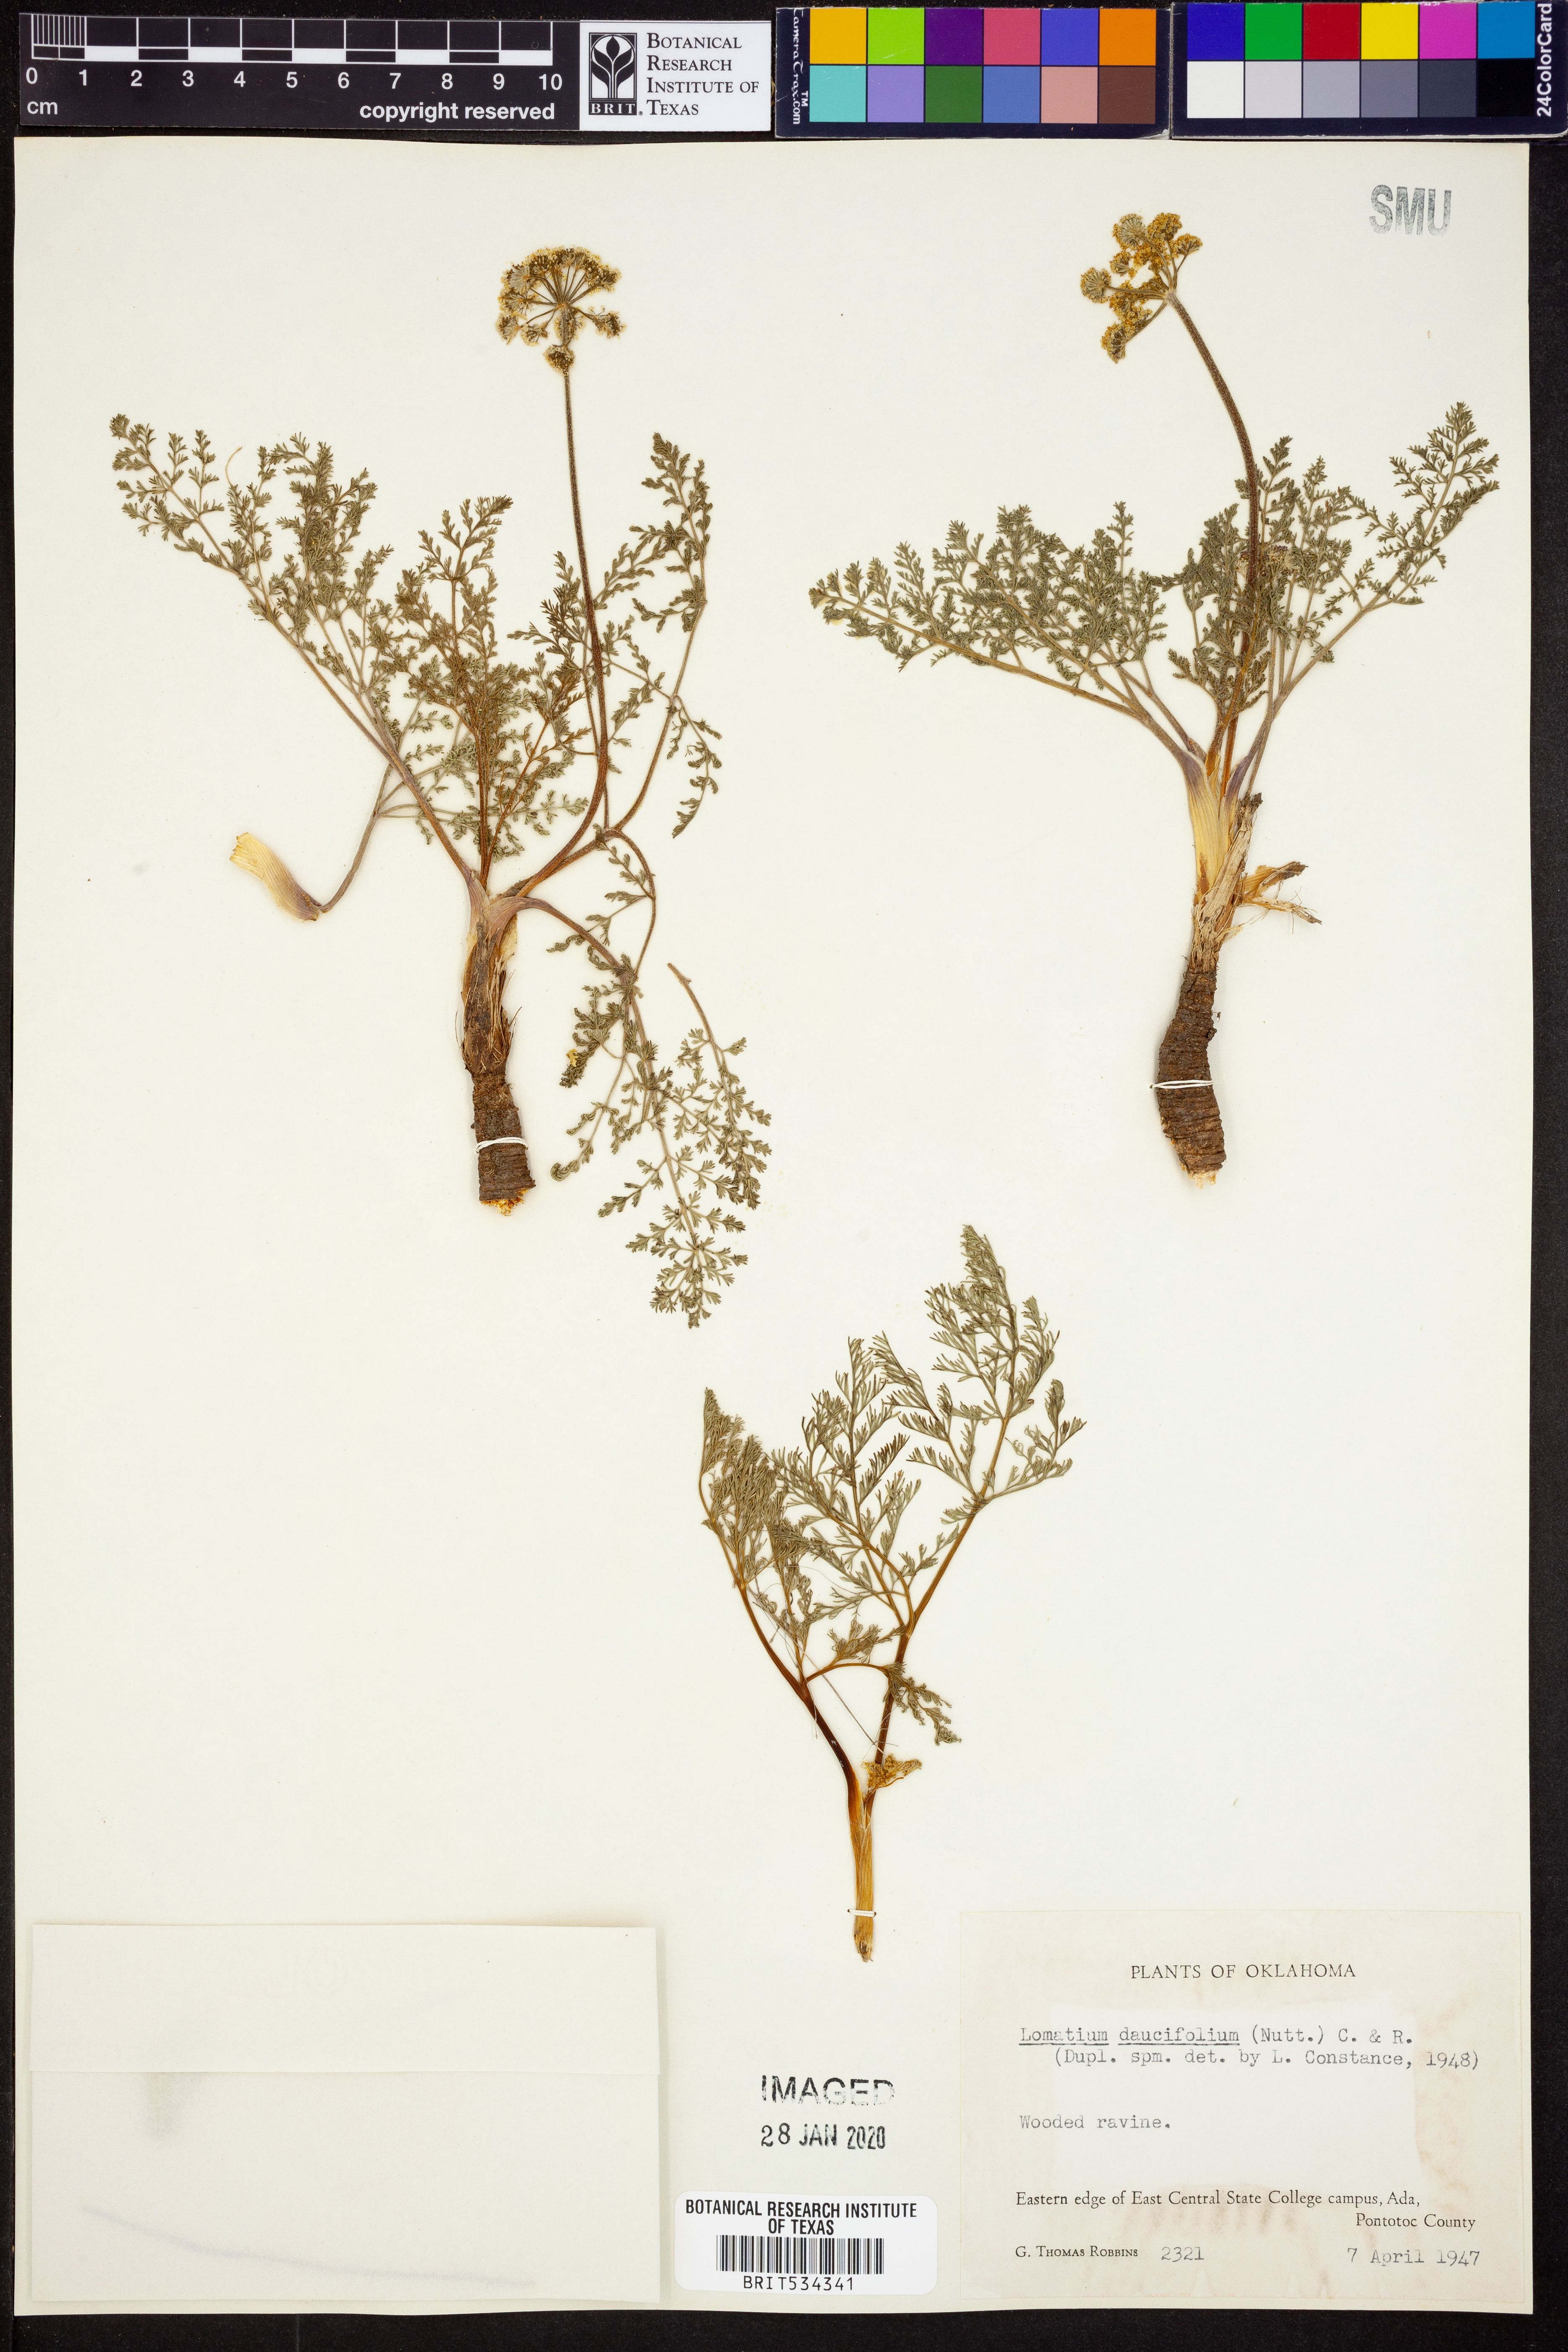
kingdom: Plantae
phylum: Tracheophyta
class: Magnoliopsida
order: Apiales
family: Apiaceae
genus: Lomatium
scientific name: Lomatium foeniculaceum
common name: Desert-parsley
